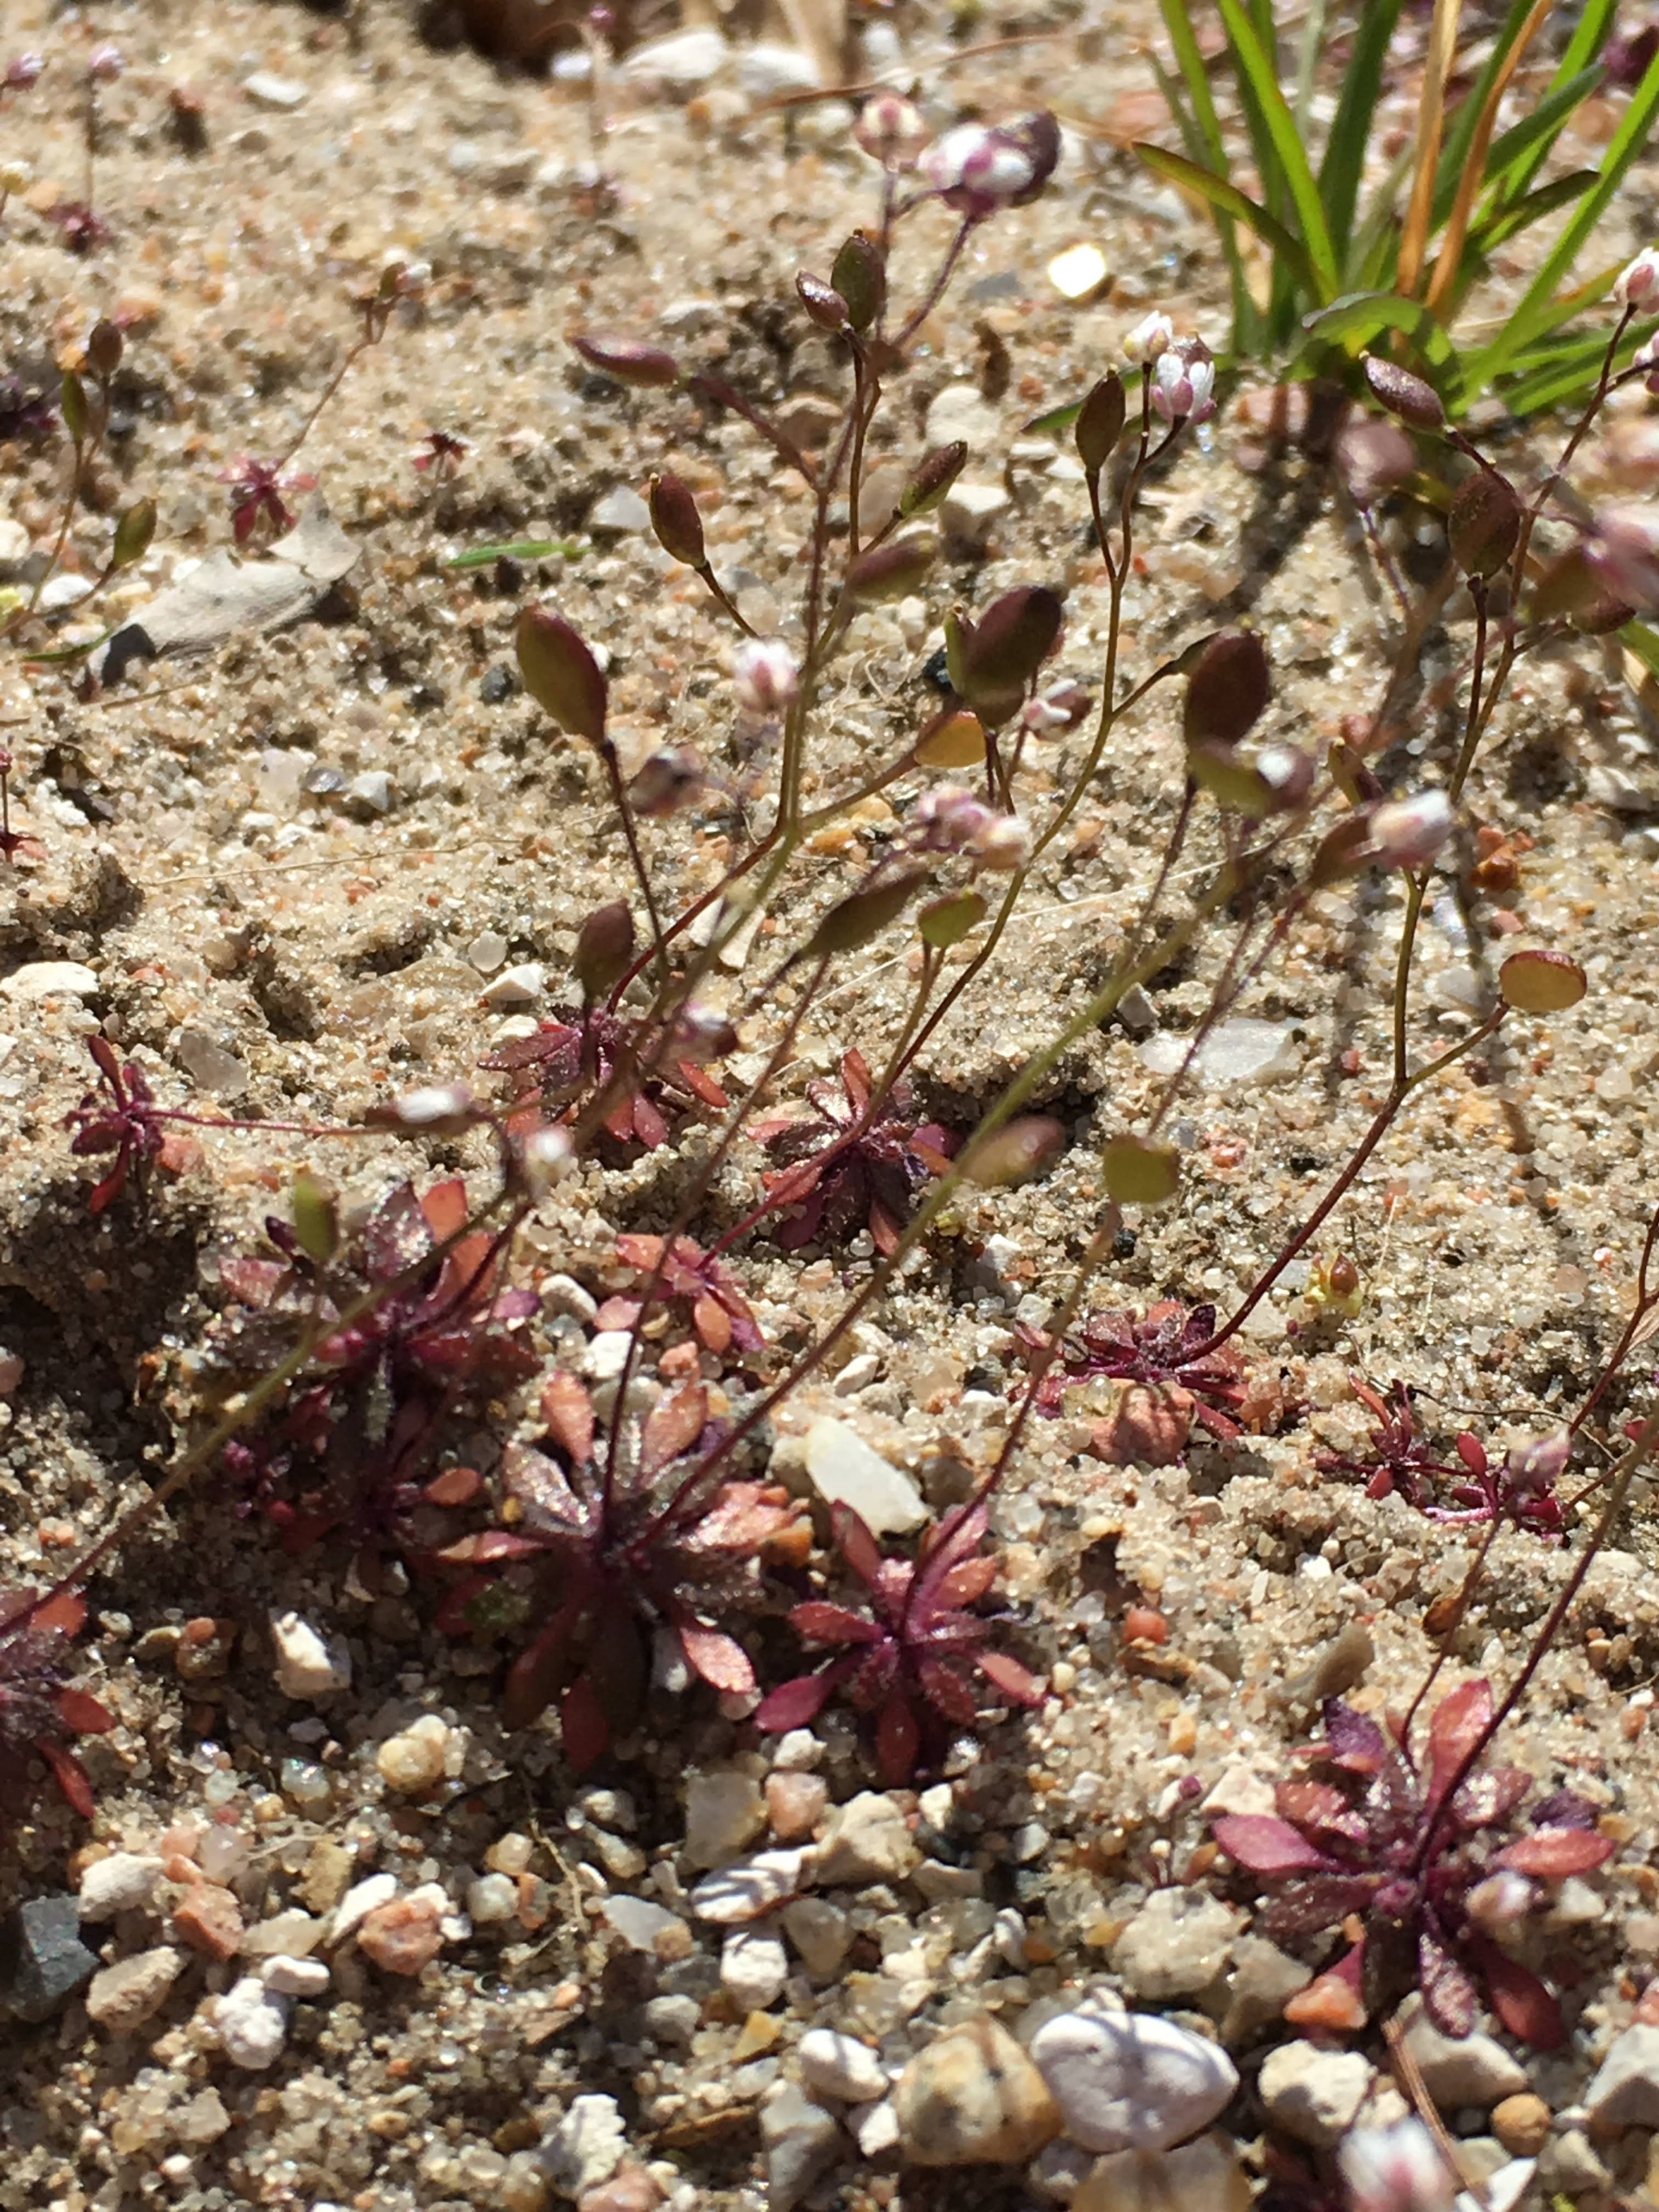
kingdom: Plantae
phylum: Tracheophyta
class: Magnoliopsida
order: Brassicales
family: Brassicaceae
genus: Draba
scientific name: Draba verna
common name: Vår-gæslingeblomst
